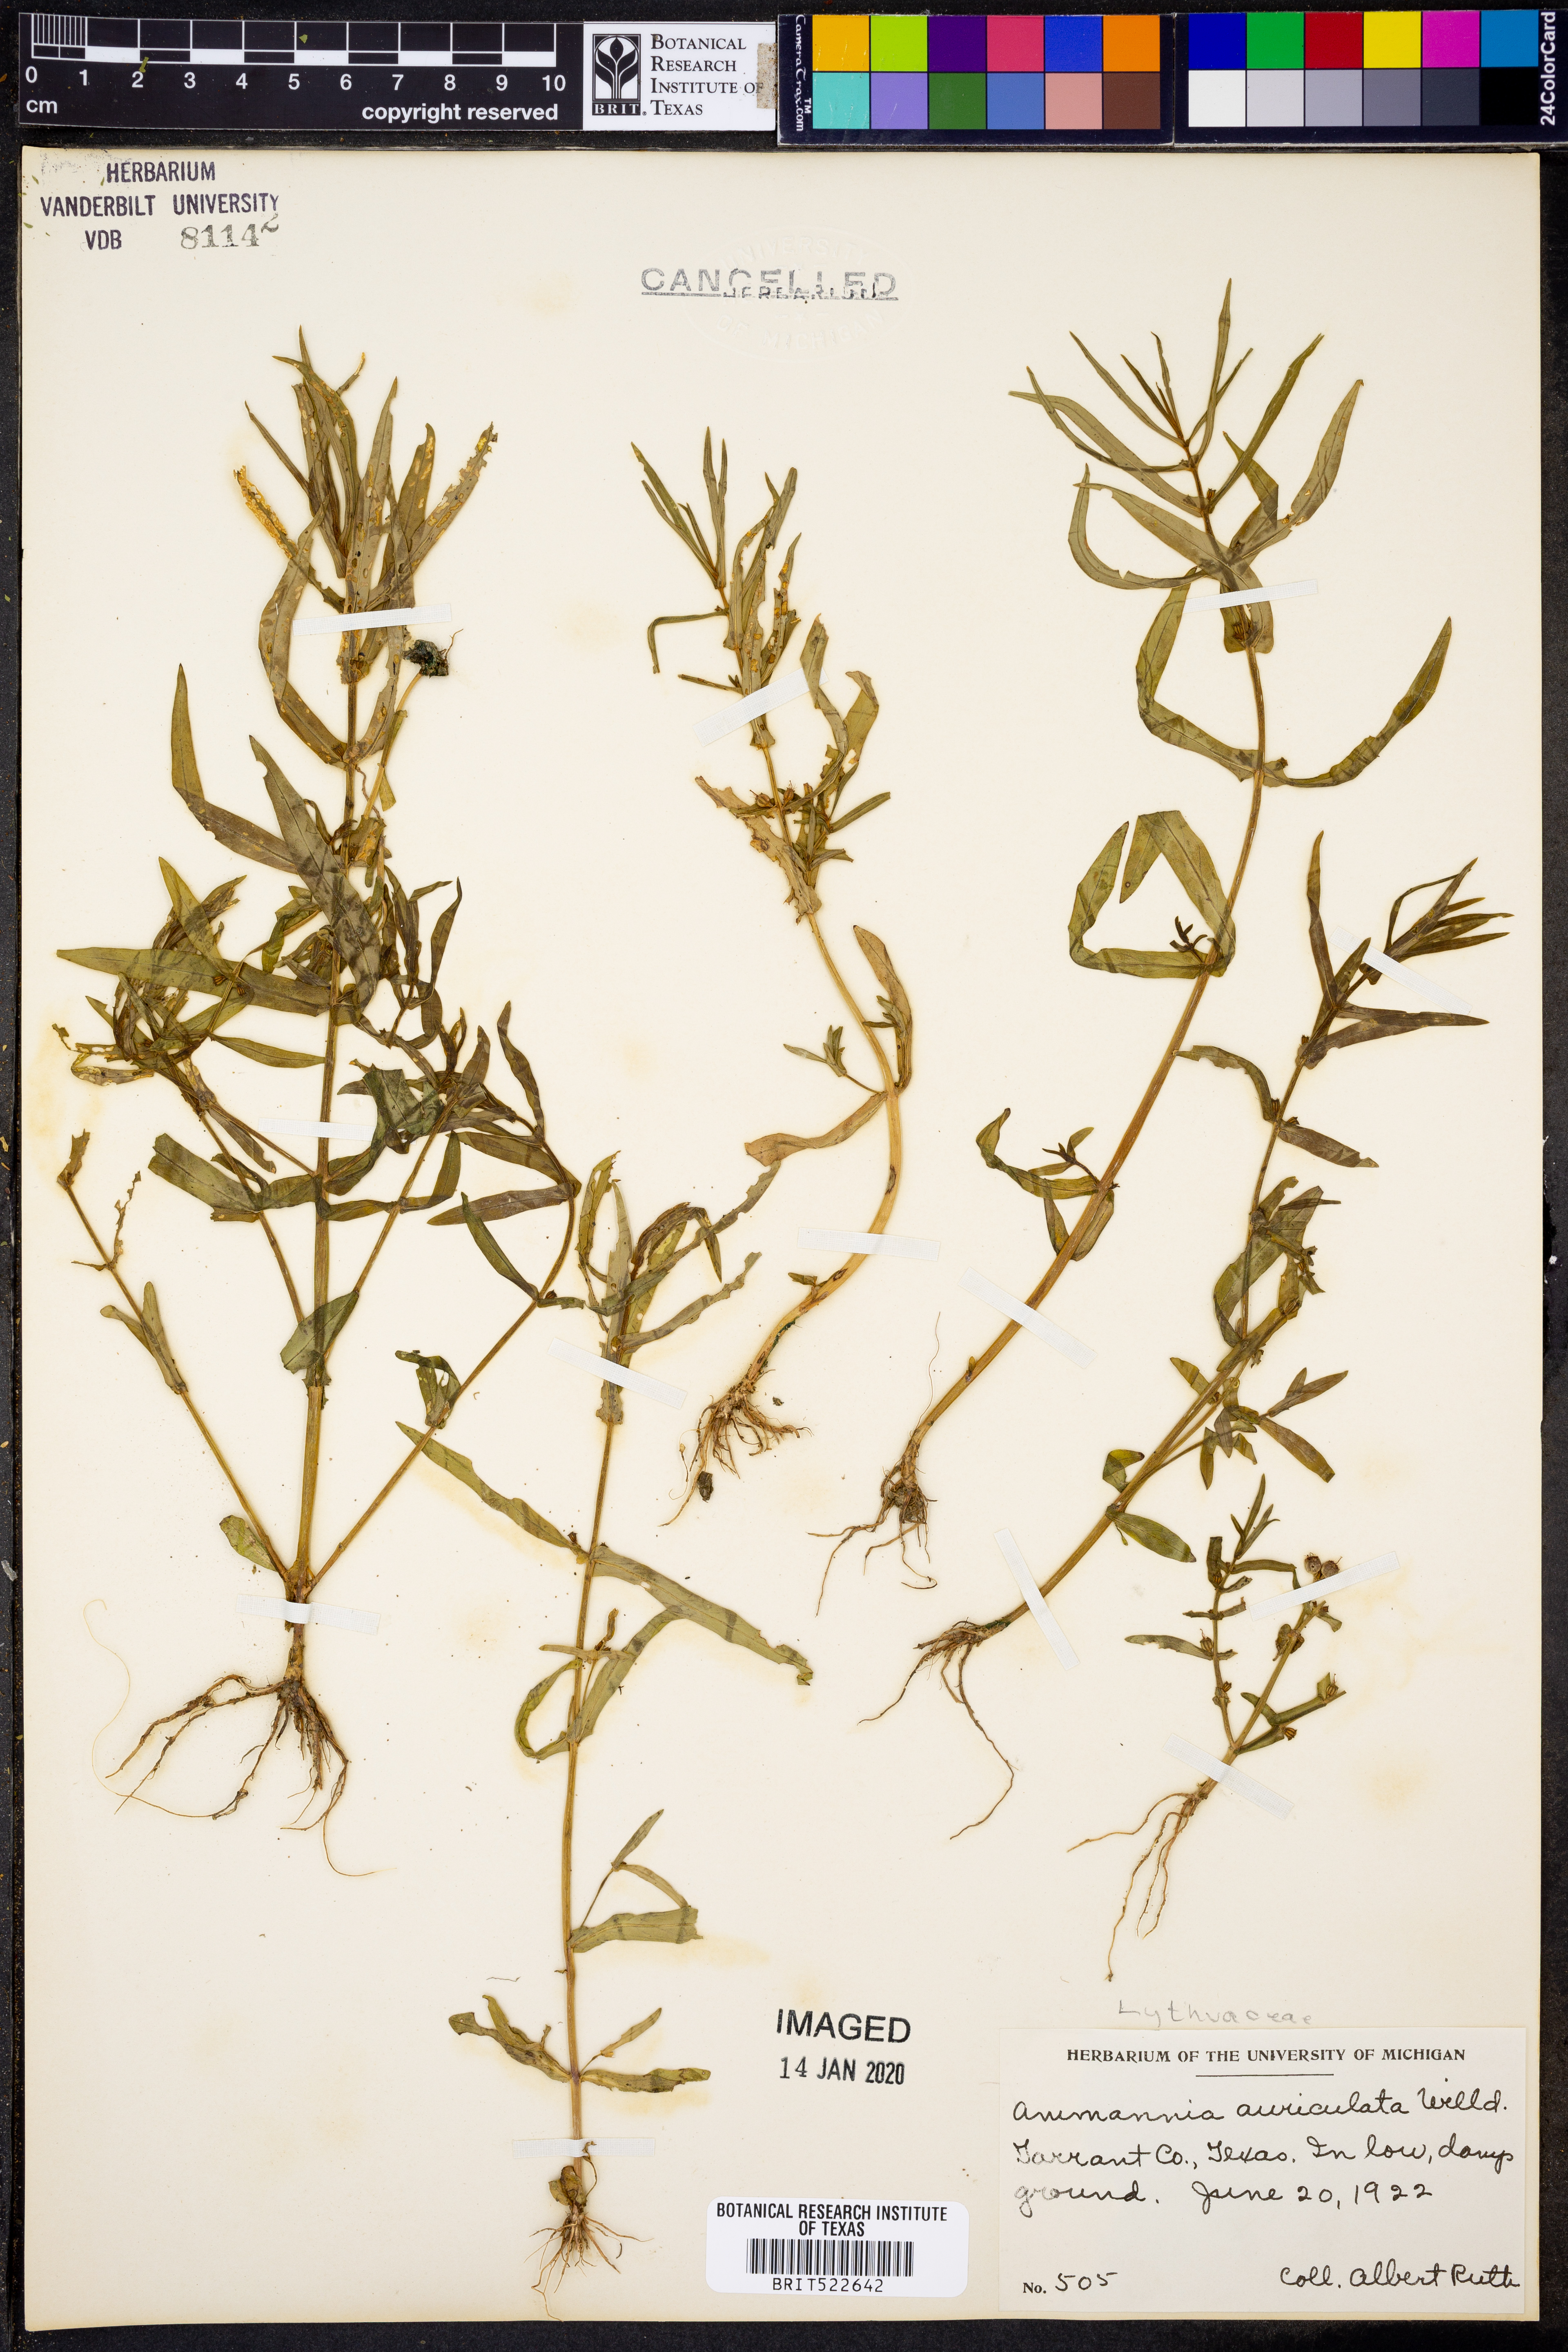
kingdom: Plantae
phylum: Tracheophyta
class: Magnoliopsida
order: Myrtales
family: Lythraceae
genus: Ammannia
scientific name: Ammannia auriculata
